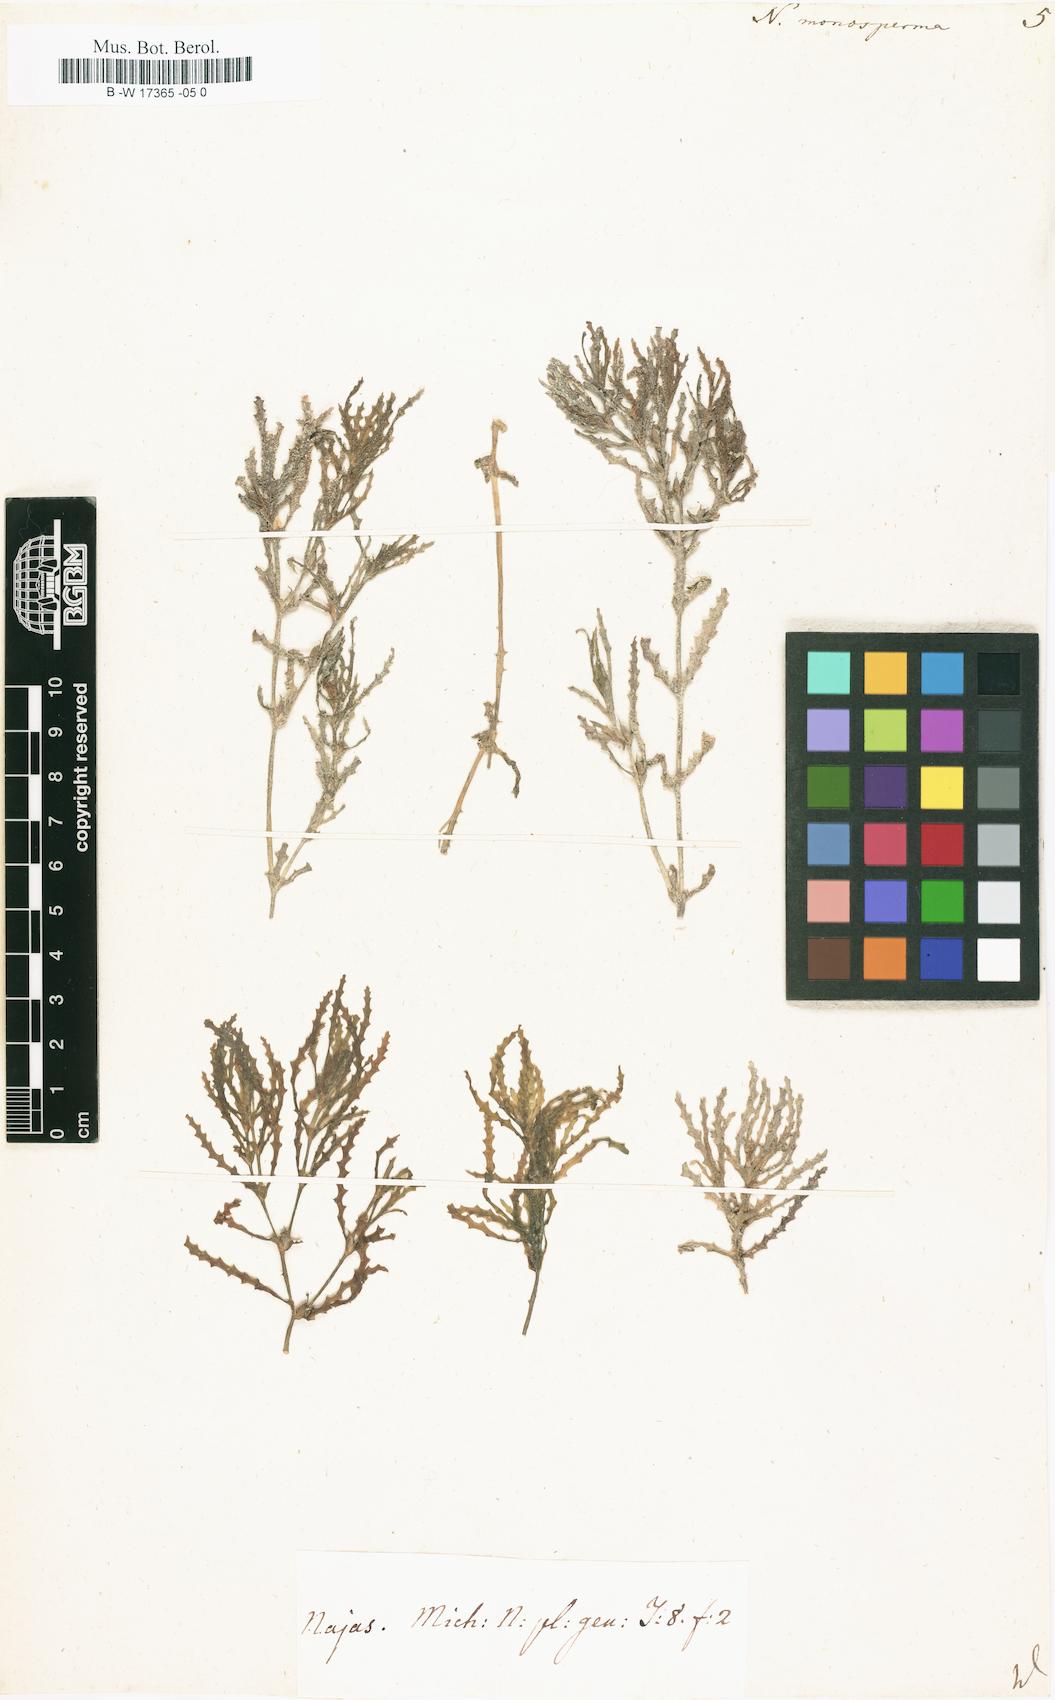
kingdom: Plantae
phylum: Tracheophyta
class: Liliopsida
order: Alismatales
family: Hydrocharitaceae
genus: Najas
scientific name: Najas major
